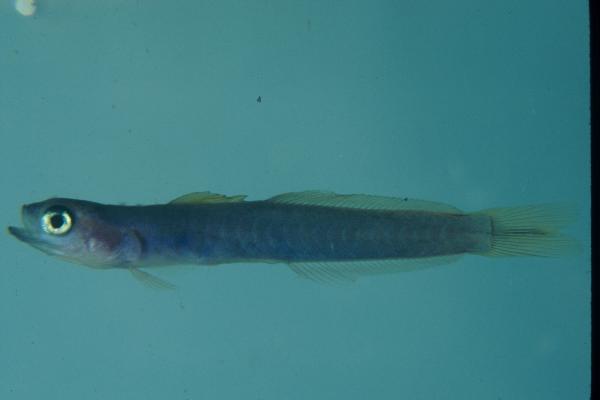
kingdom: Animalia
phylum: Chordata
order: Perciformes
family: Microdesmidae
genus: Ptereleotris
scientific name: Ptereleotris heteroptera
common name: Blacktail goby
